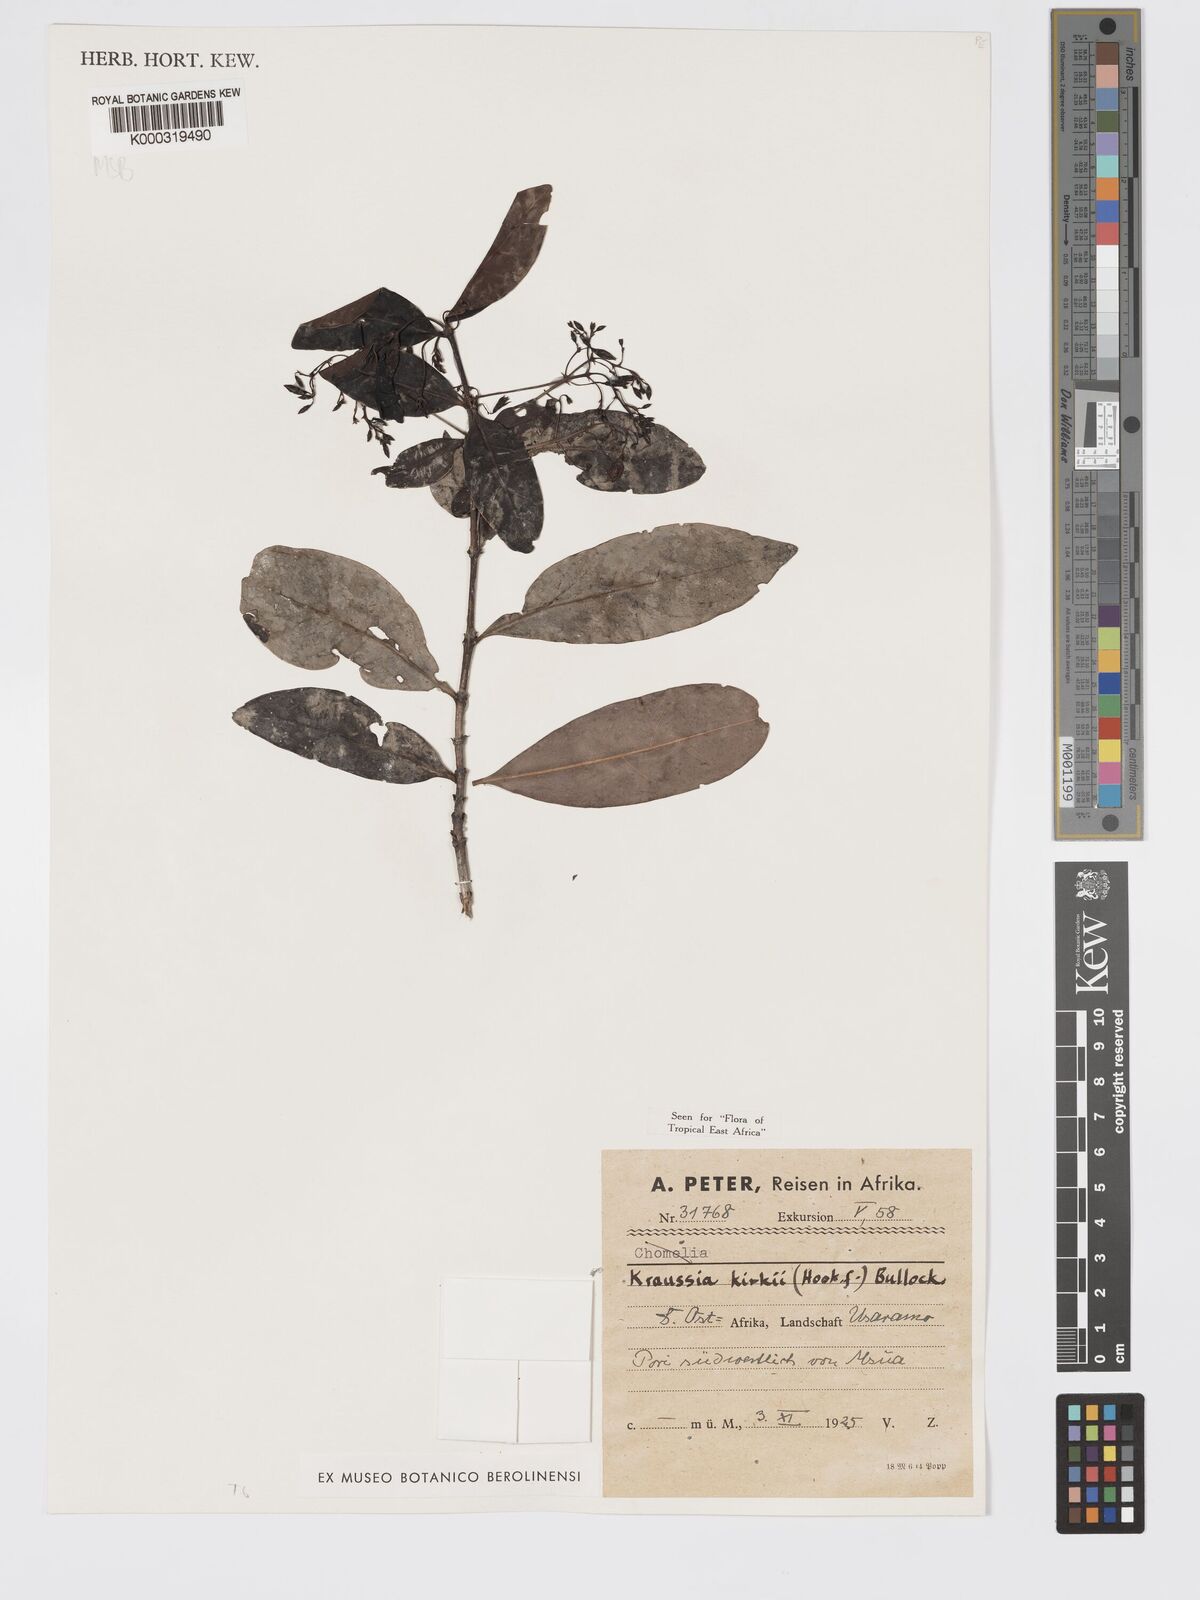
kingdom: Plantae
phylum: Tracheophyta
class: Magnoliopsida
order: Gentianales
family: Rubiaceae
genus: Kraussia
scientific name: Kraussia kirkii
